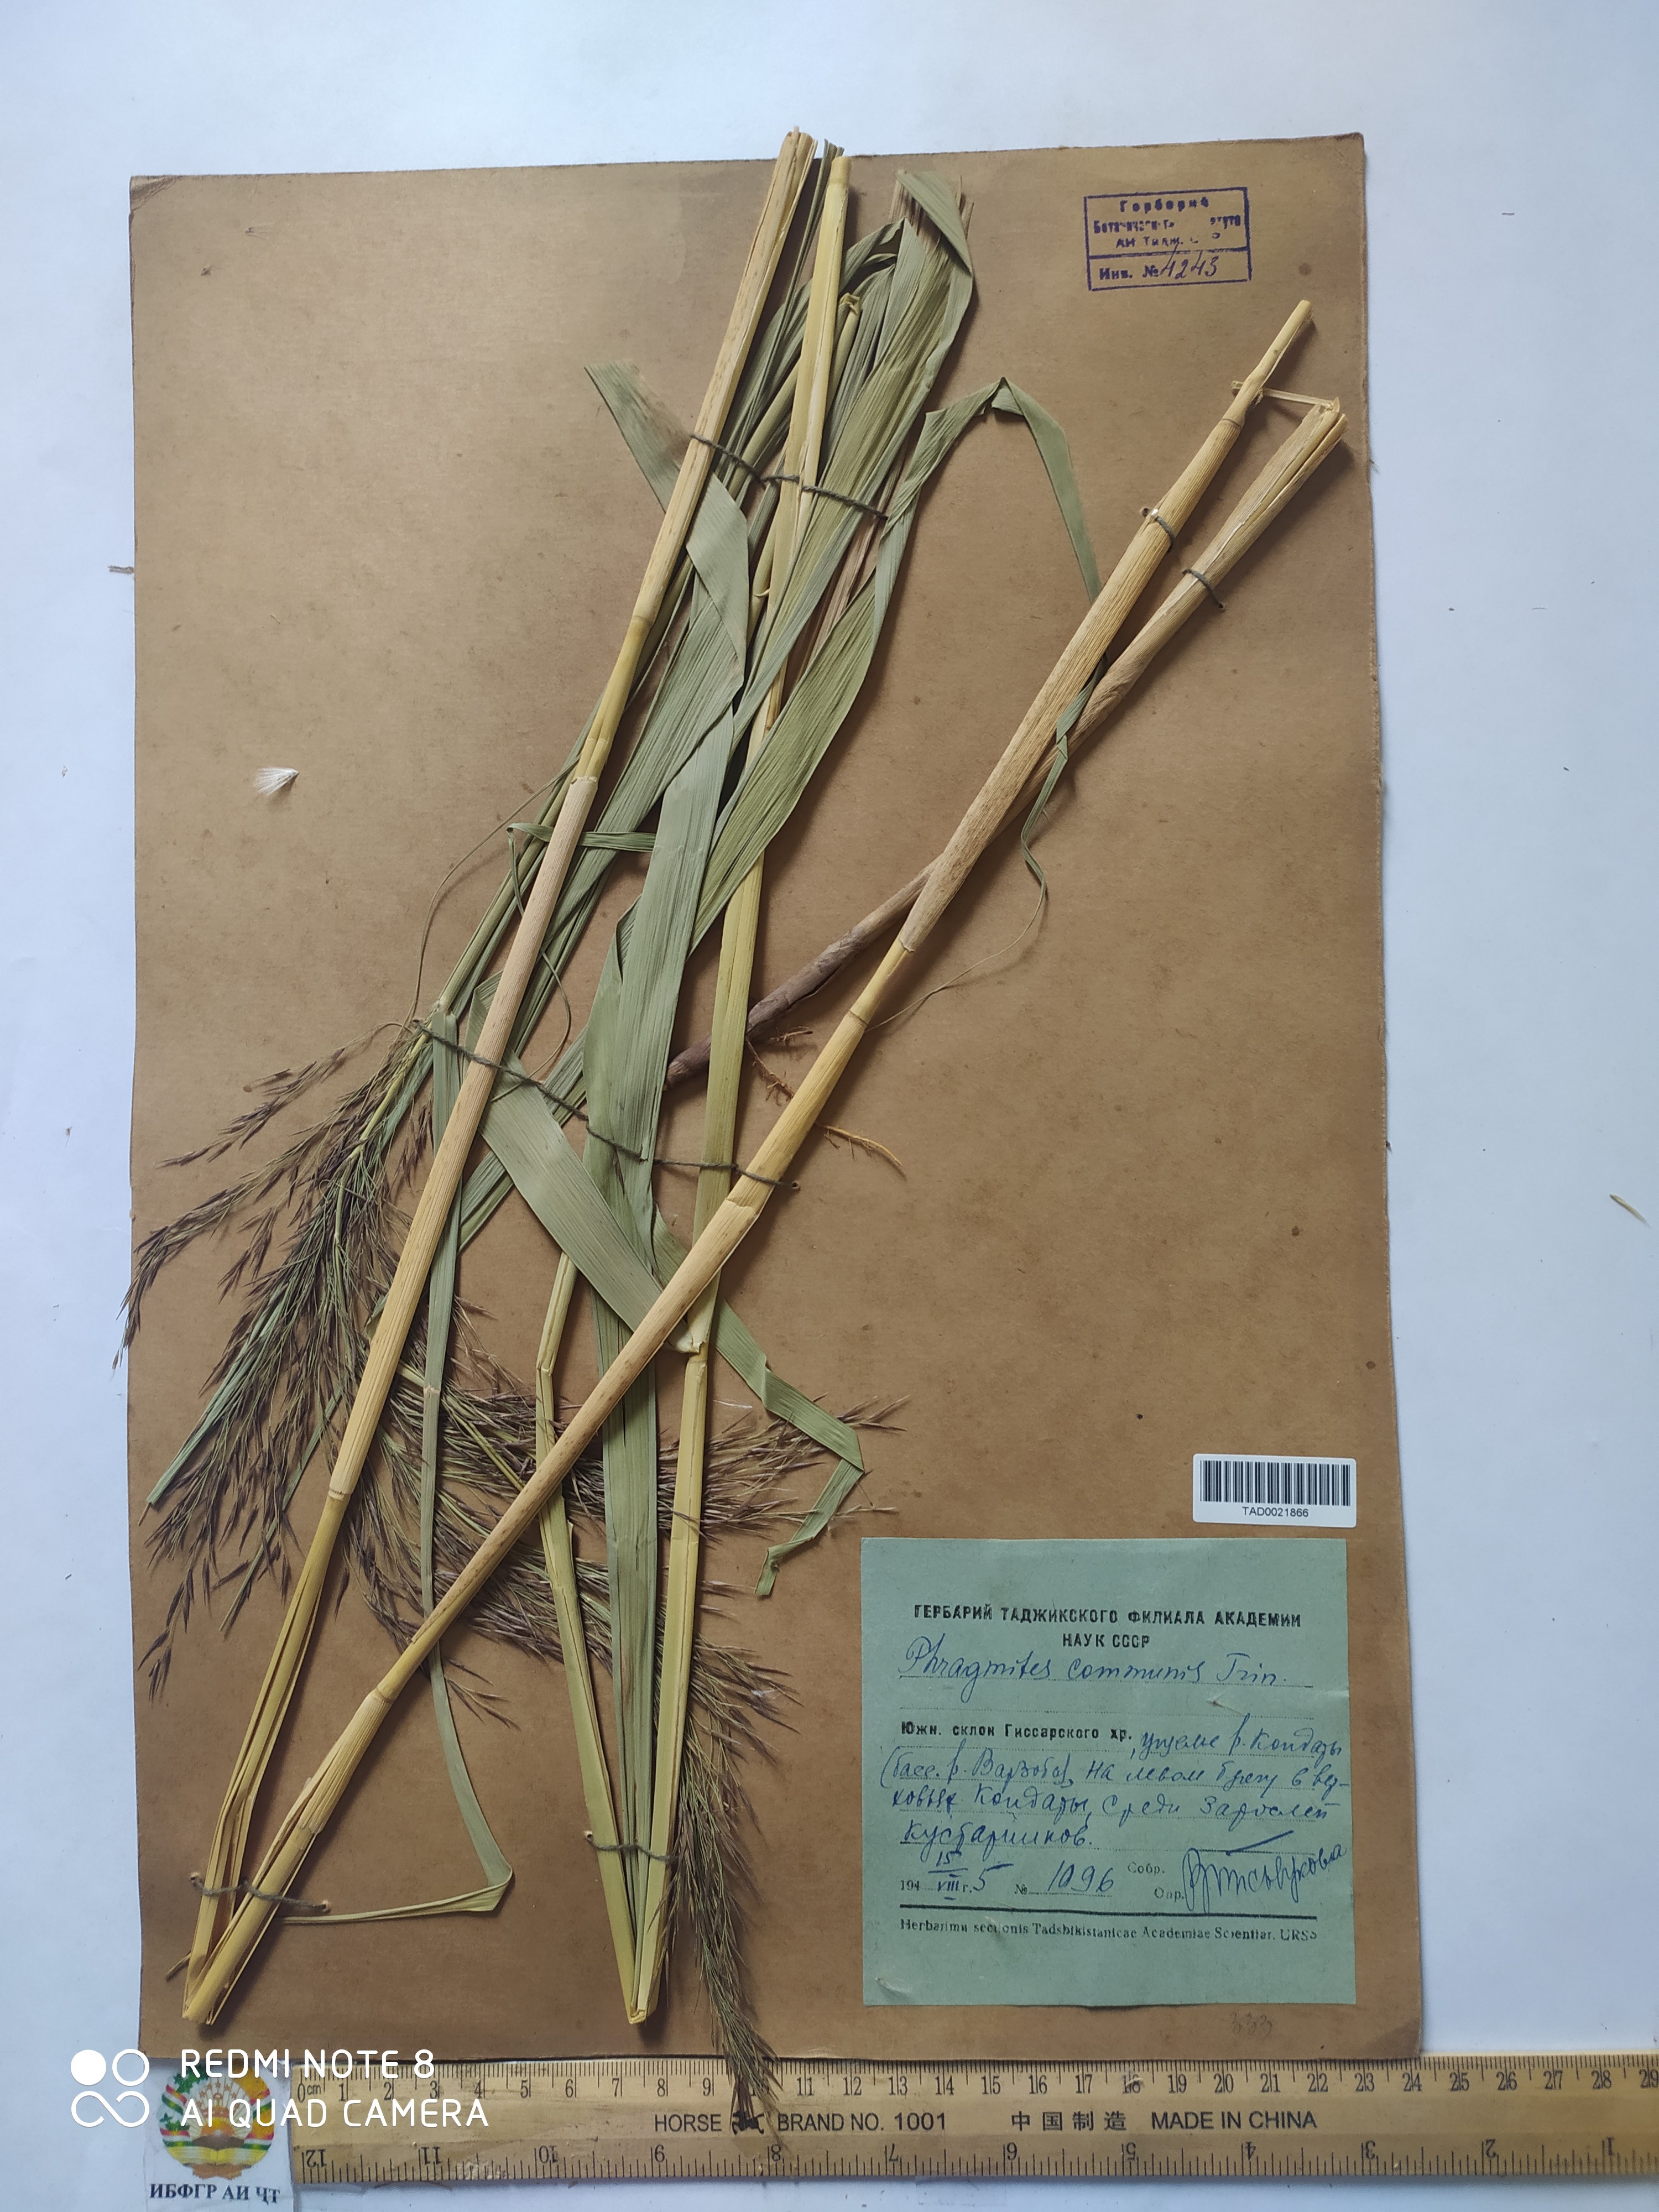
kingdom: Plantae
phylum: Tracheophyta
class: Liliopsida
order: Poales
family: Poaceae
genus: Phragmites
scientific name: Phragmites australis
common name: Common reed
